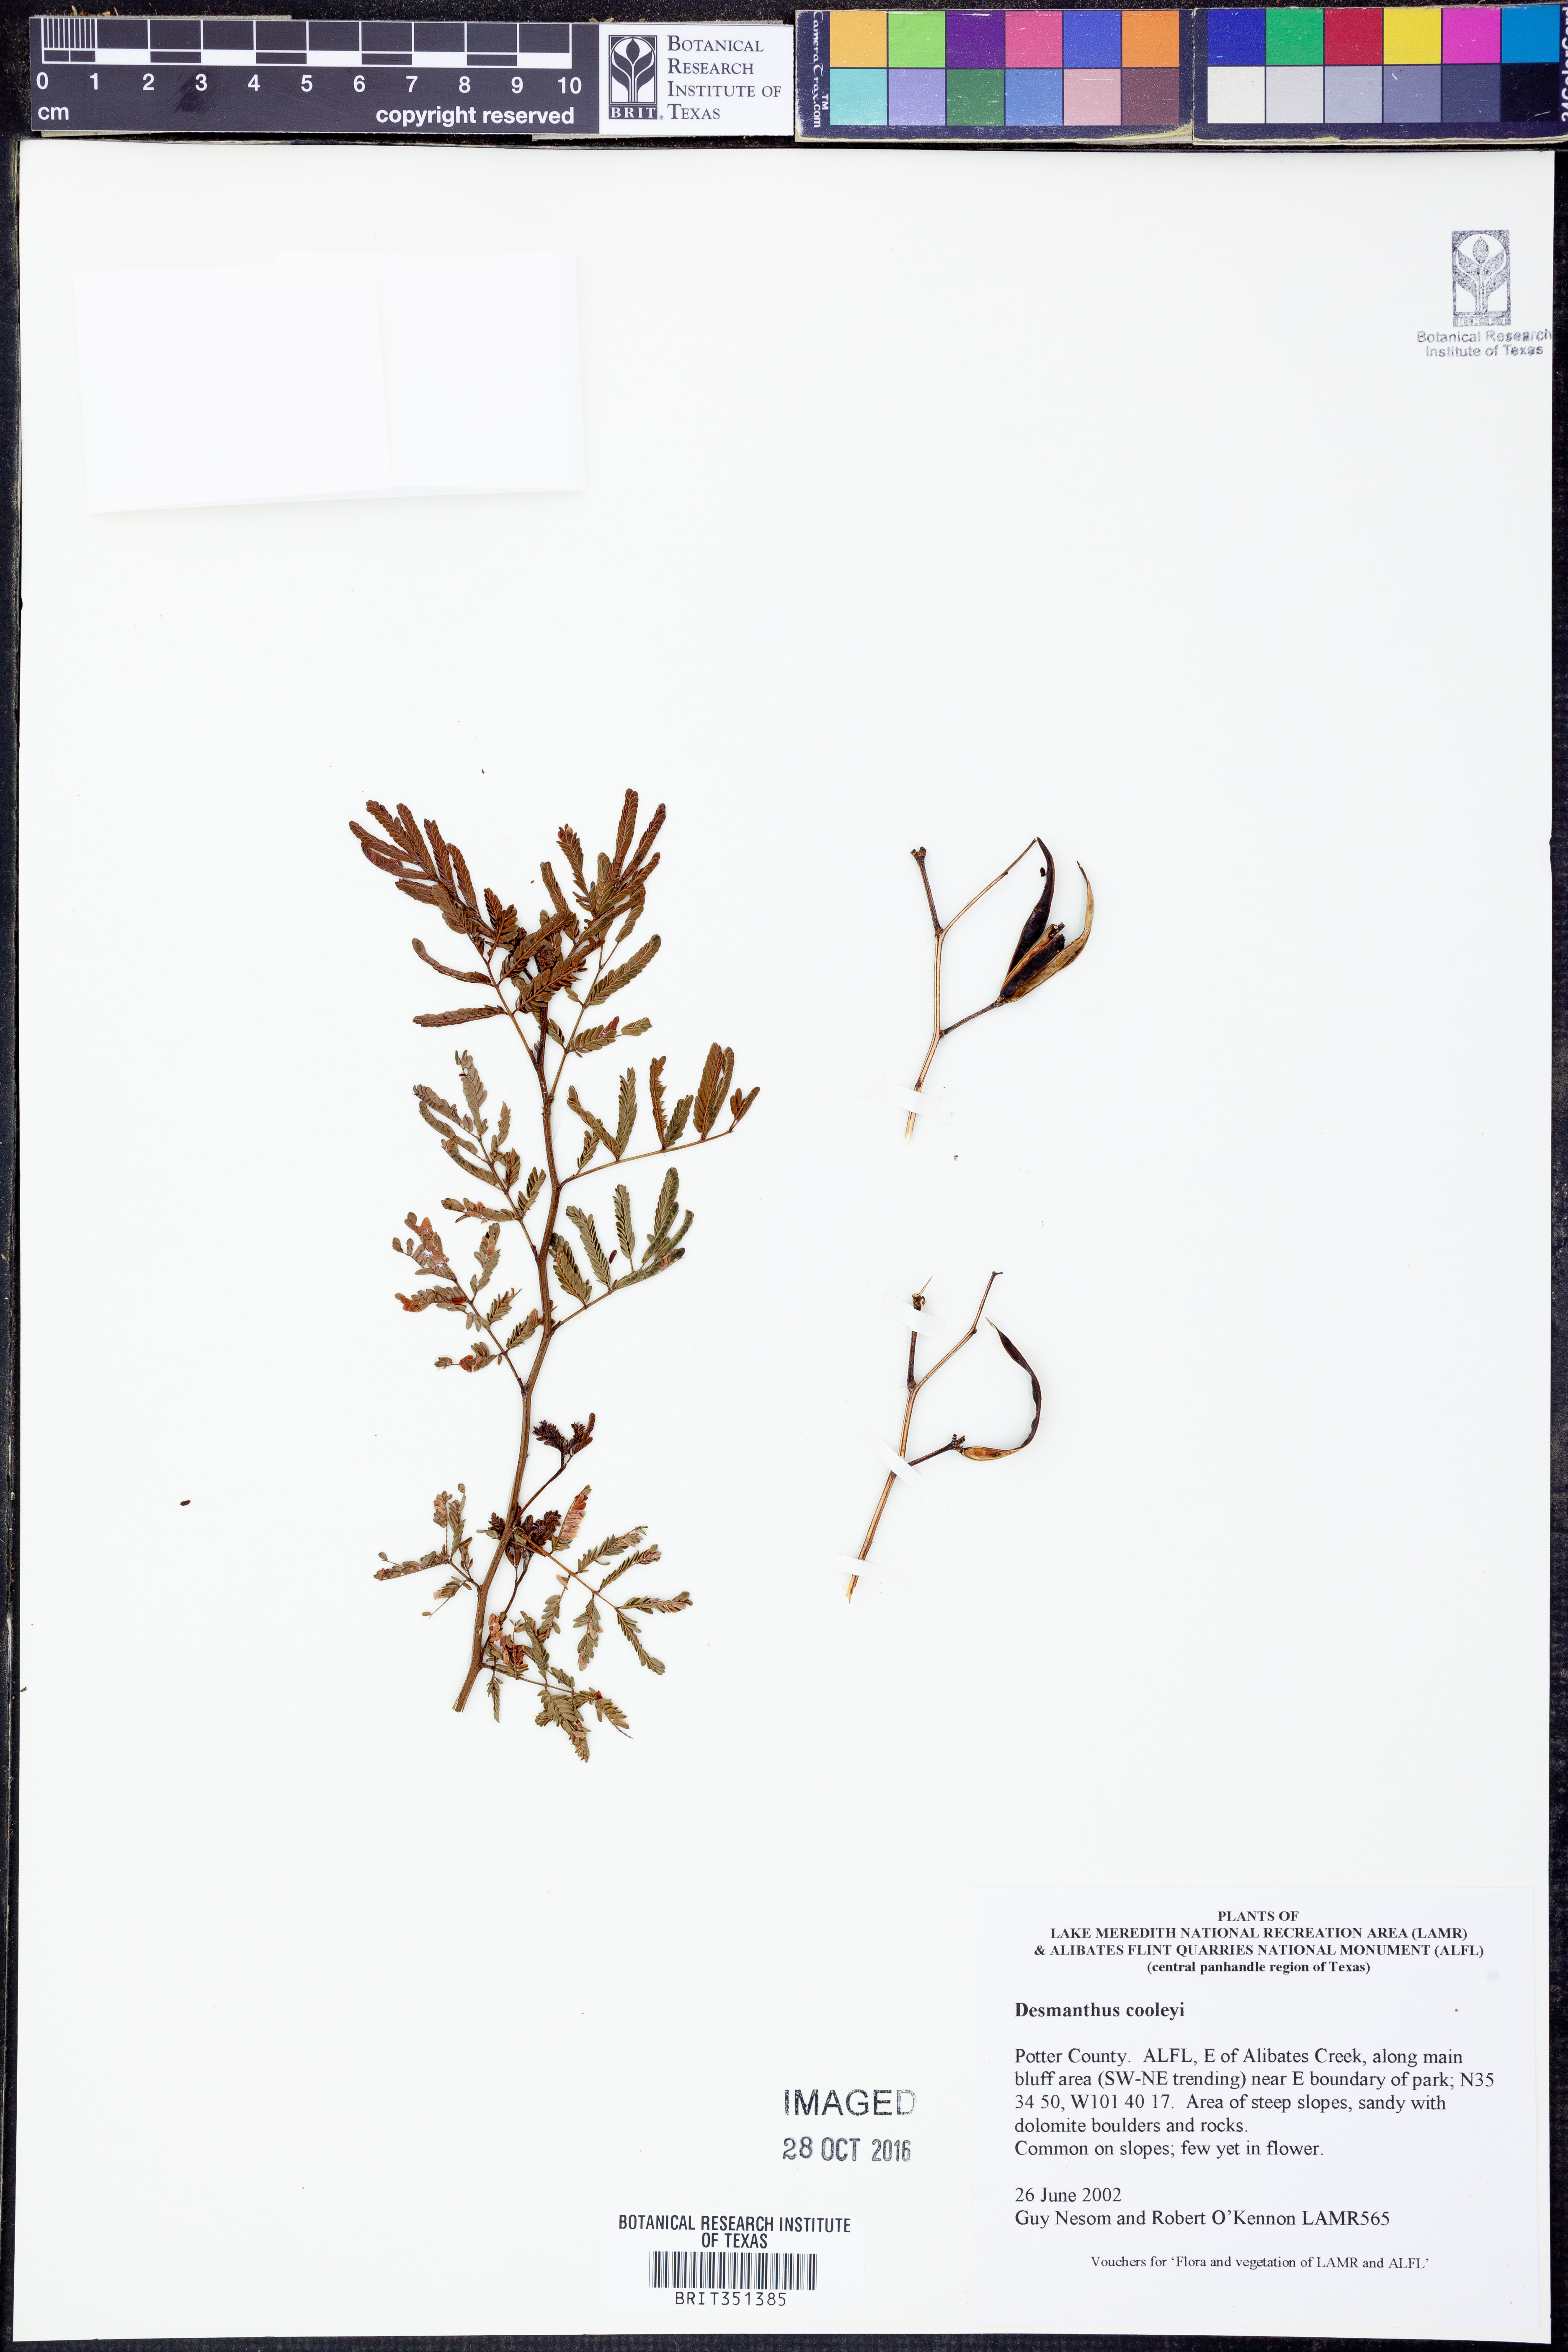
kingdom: Plantae
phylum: Tracheophyta
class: Magnoliopsida
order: Fabales
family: Fabaceae
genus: Desmanthus
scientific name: Desmanthus cooleyi
